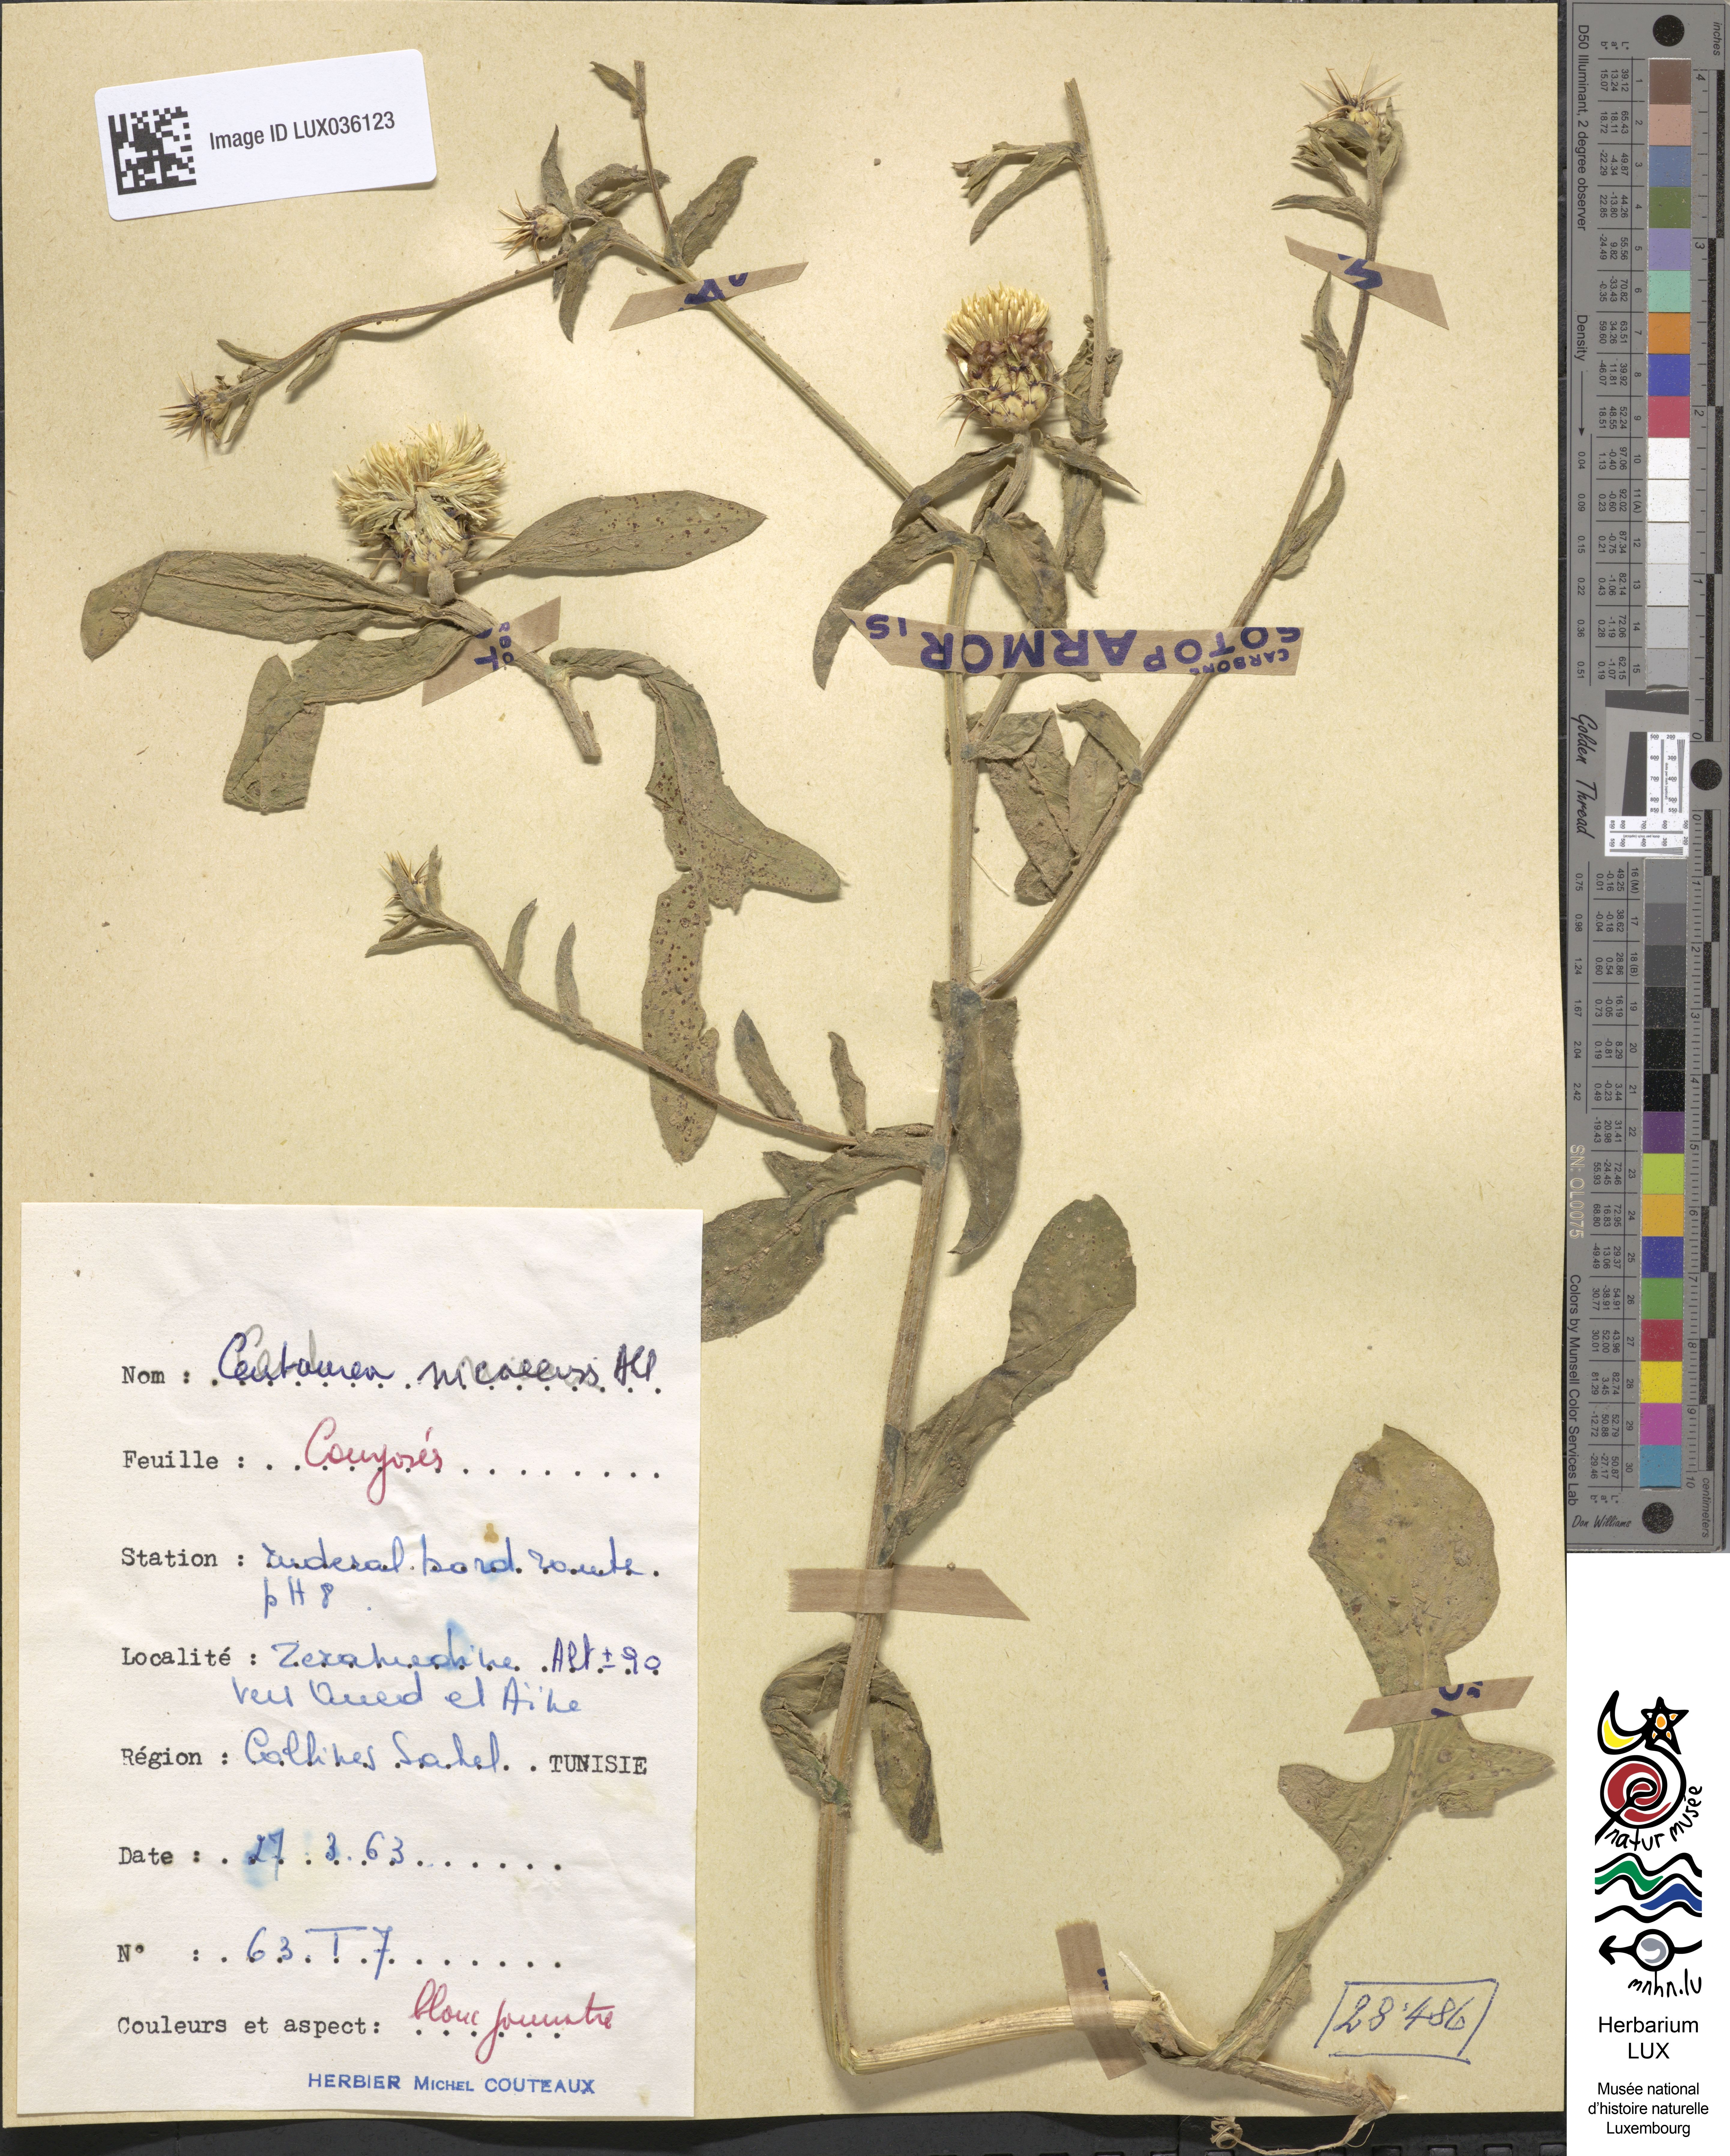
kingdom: Plantae
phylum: Tracheophyta
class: Magnoliopsida
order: Asterales
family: Asteraceae
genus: Centaurea
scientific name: Centaurea sicula
